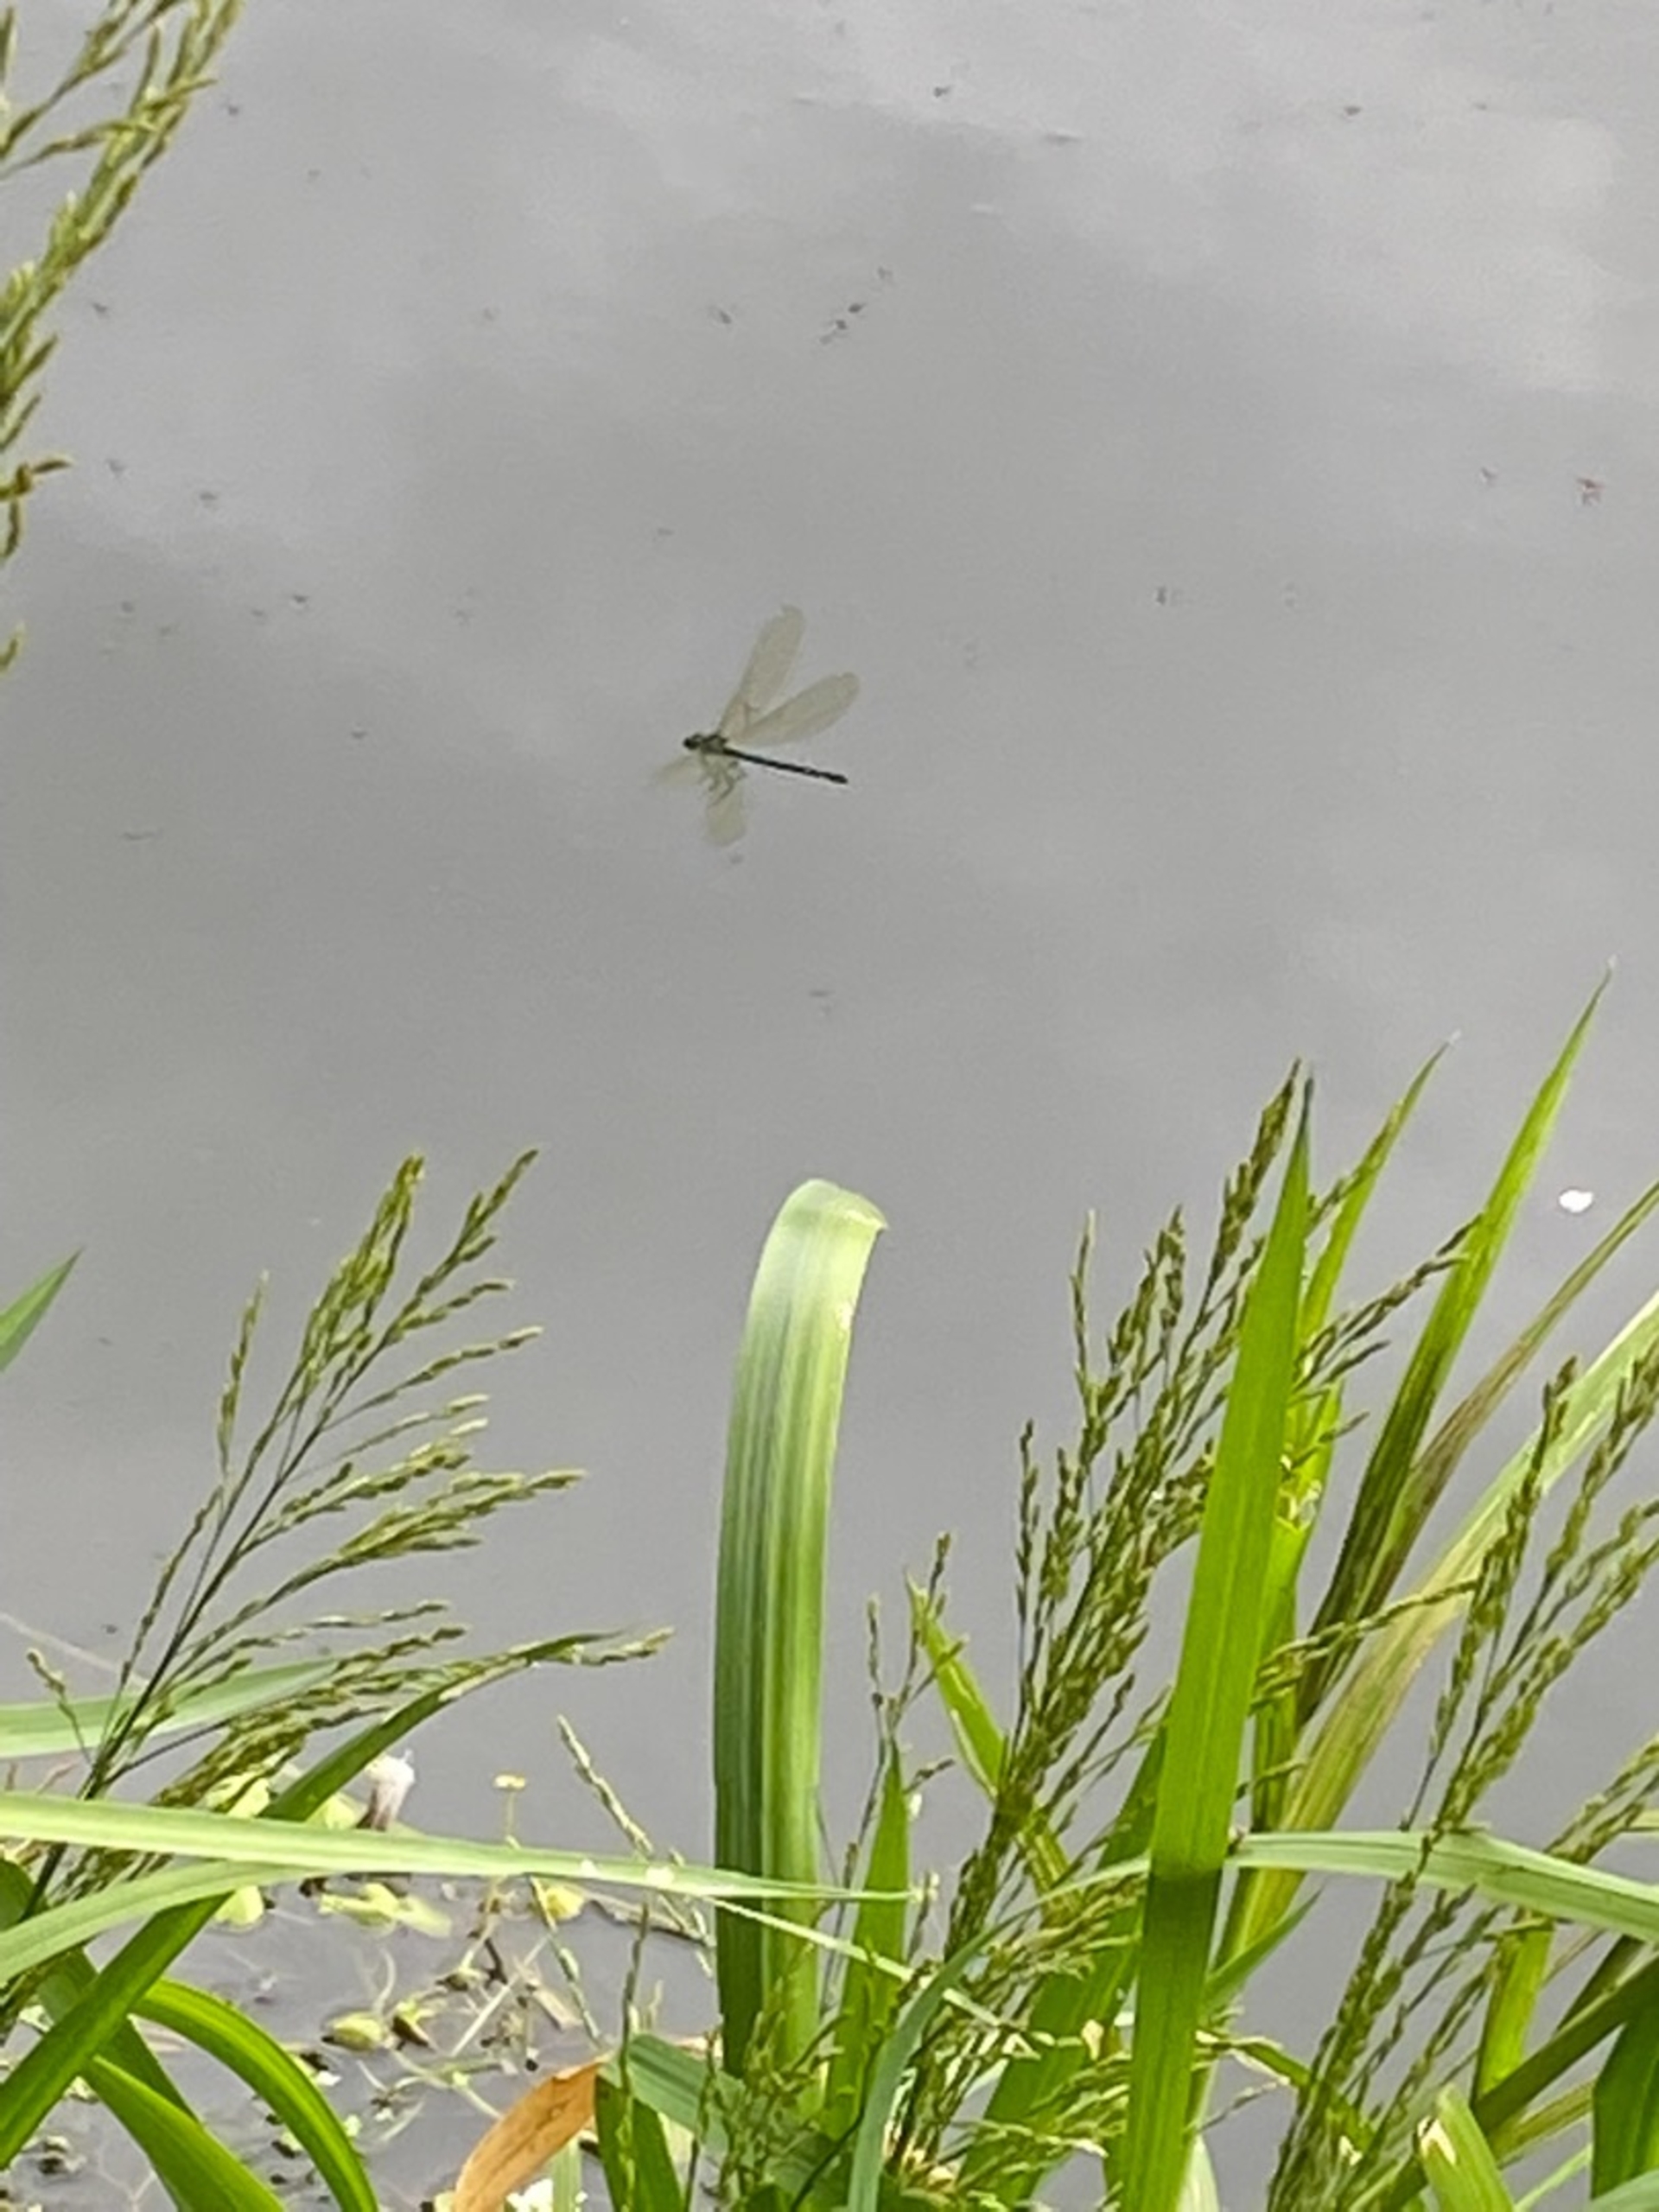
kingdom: Animalia
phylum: Arthropoda
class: Insecta
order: Odonata
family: Calopterygidae
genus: Calopteryx
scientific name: Calopteryx virgo
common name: Blåvinget pragtvandnymfe
